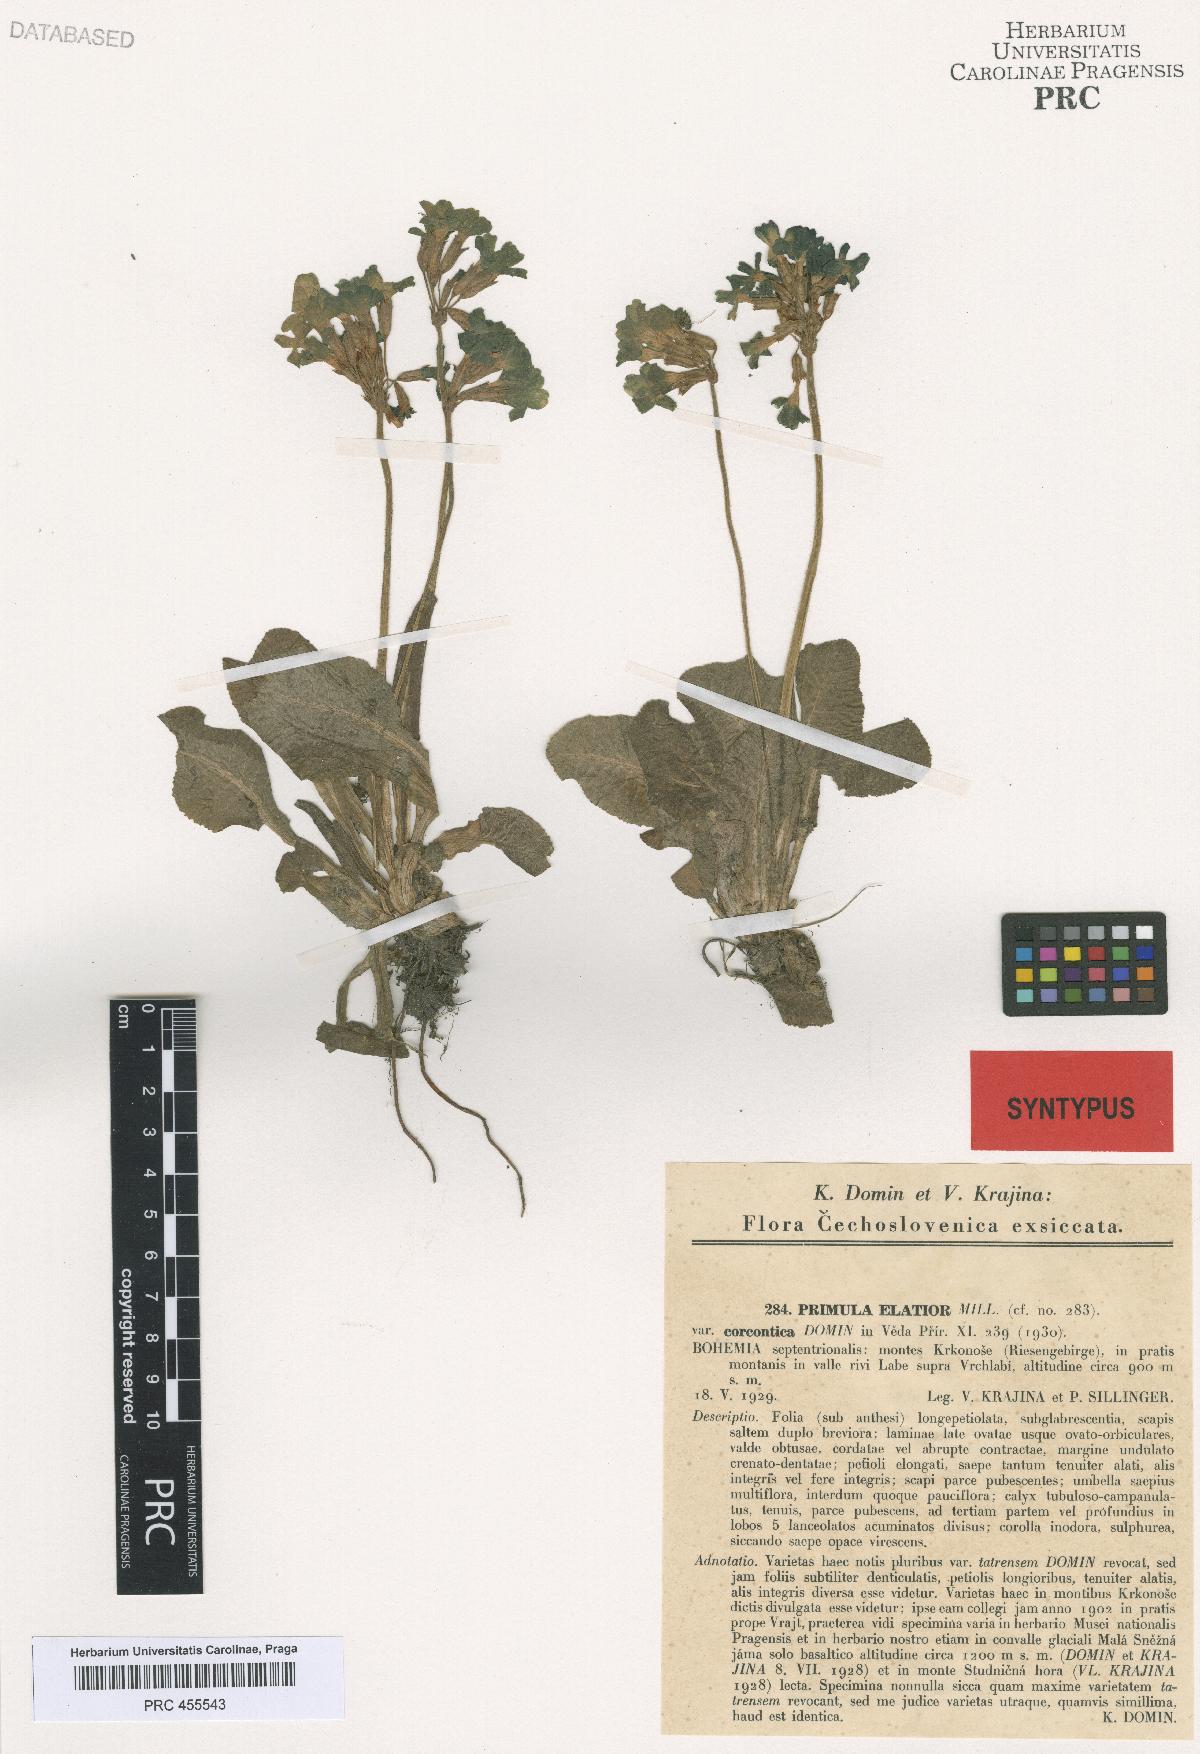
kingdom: Plantae
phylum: Tracheophyta
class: Magnoliopsida
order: Ericales
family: Primulaceae
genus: Primula
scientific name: Primula elatior
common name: Oxlip
